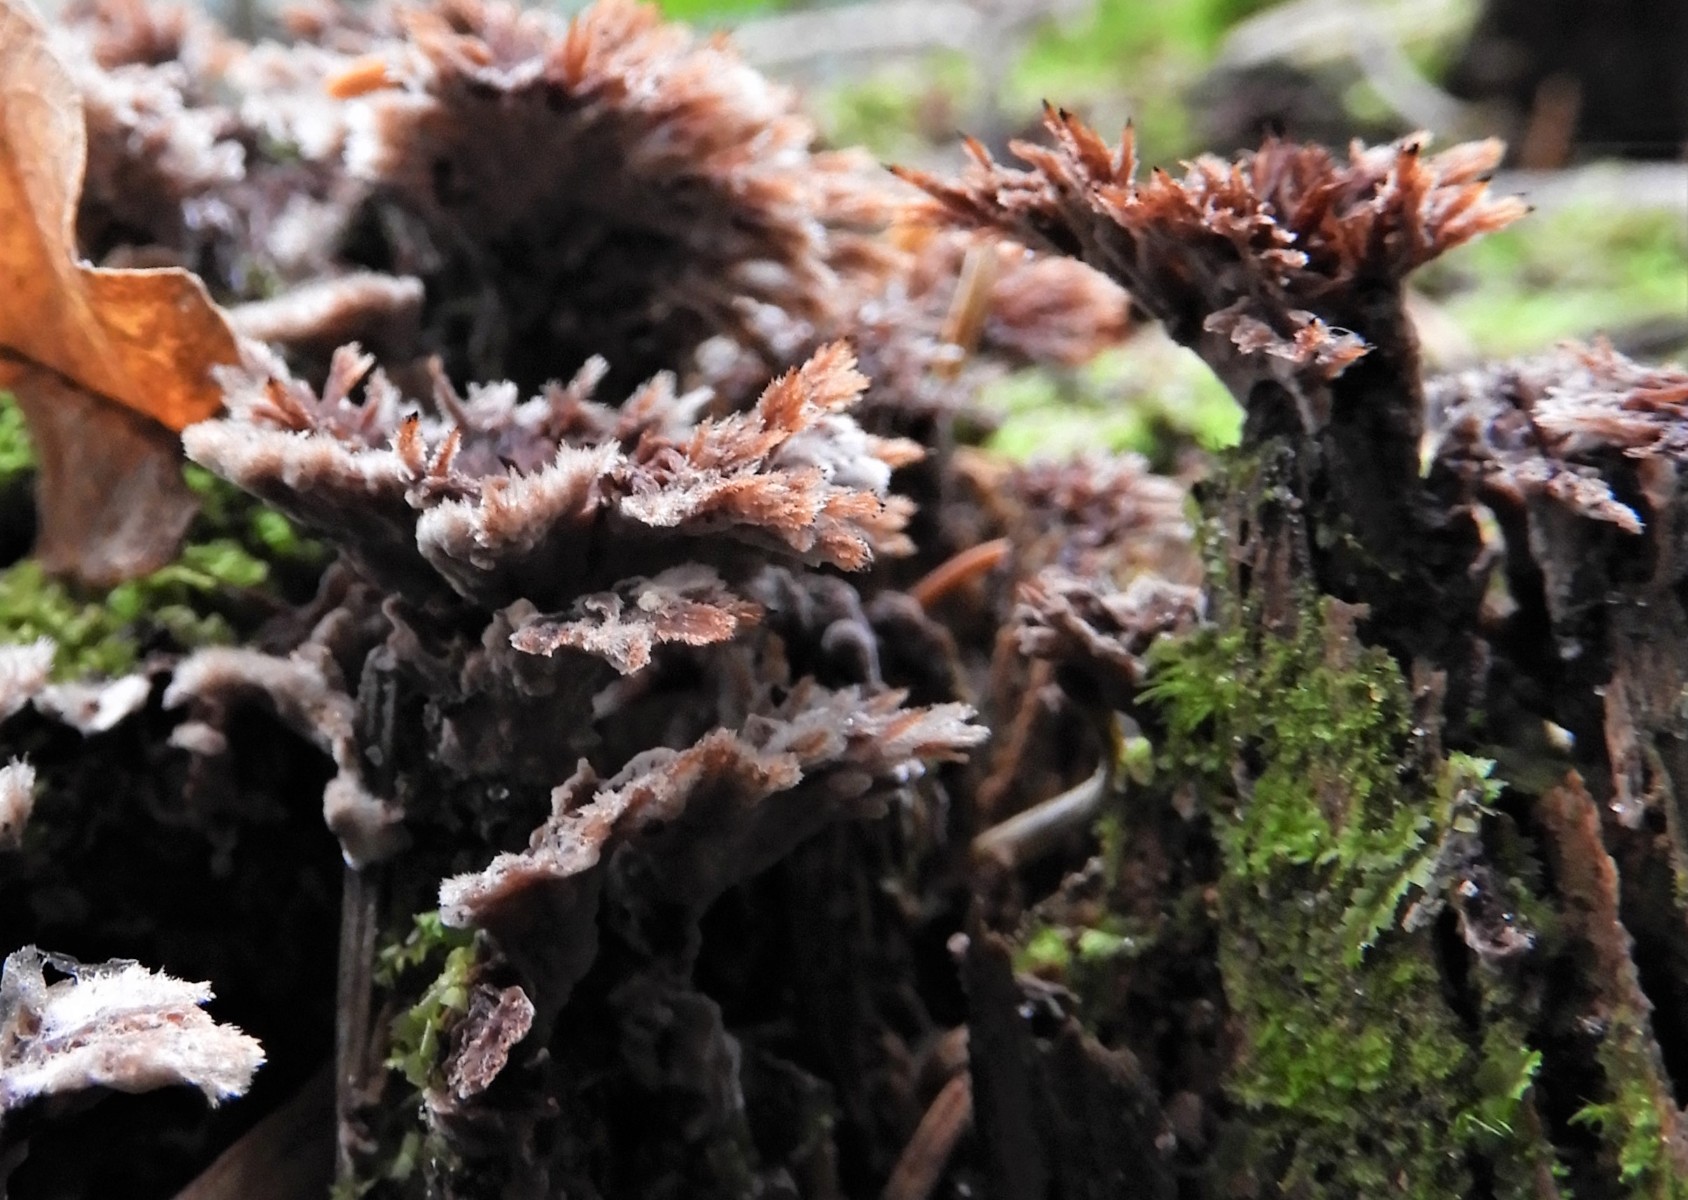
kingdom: Fungi
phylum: Basidiomycota
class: Agaricomycetes
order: Thelephorales
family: Thelephoraceae
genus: Thelephora
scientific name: Thelephora terrestris
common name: fliget frynsesvamp
